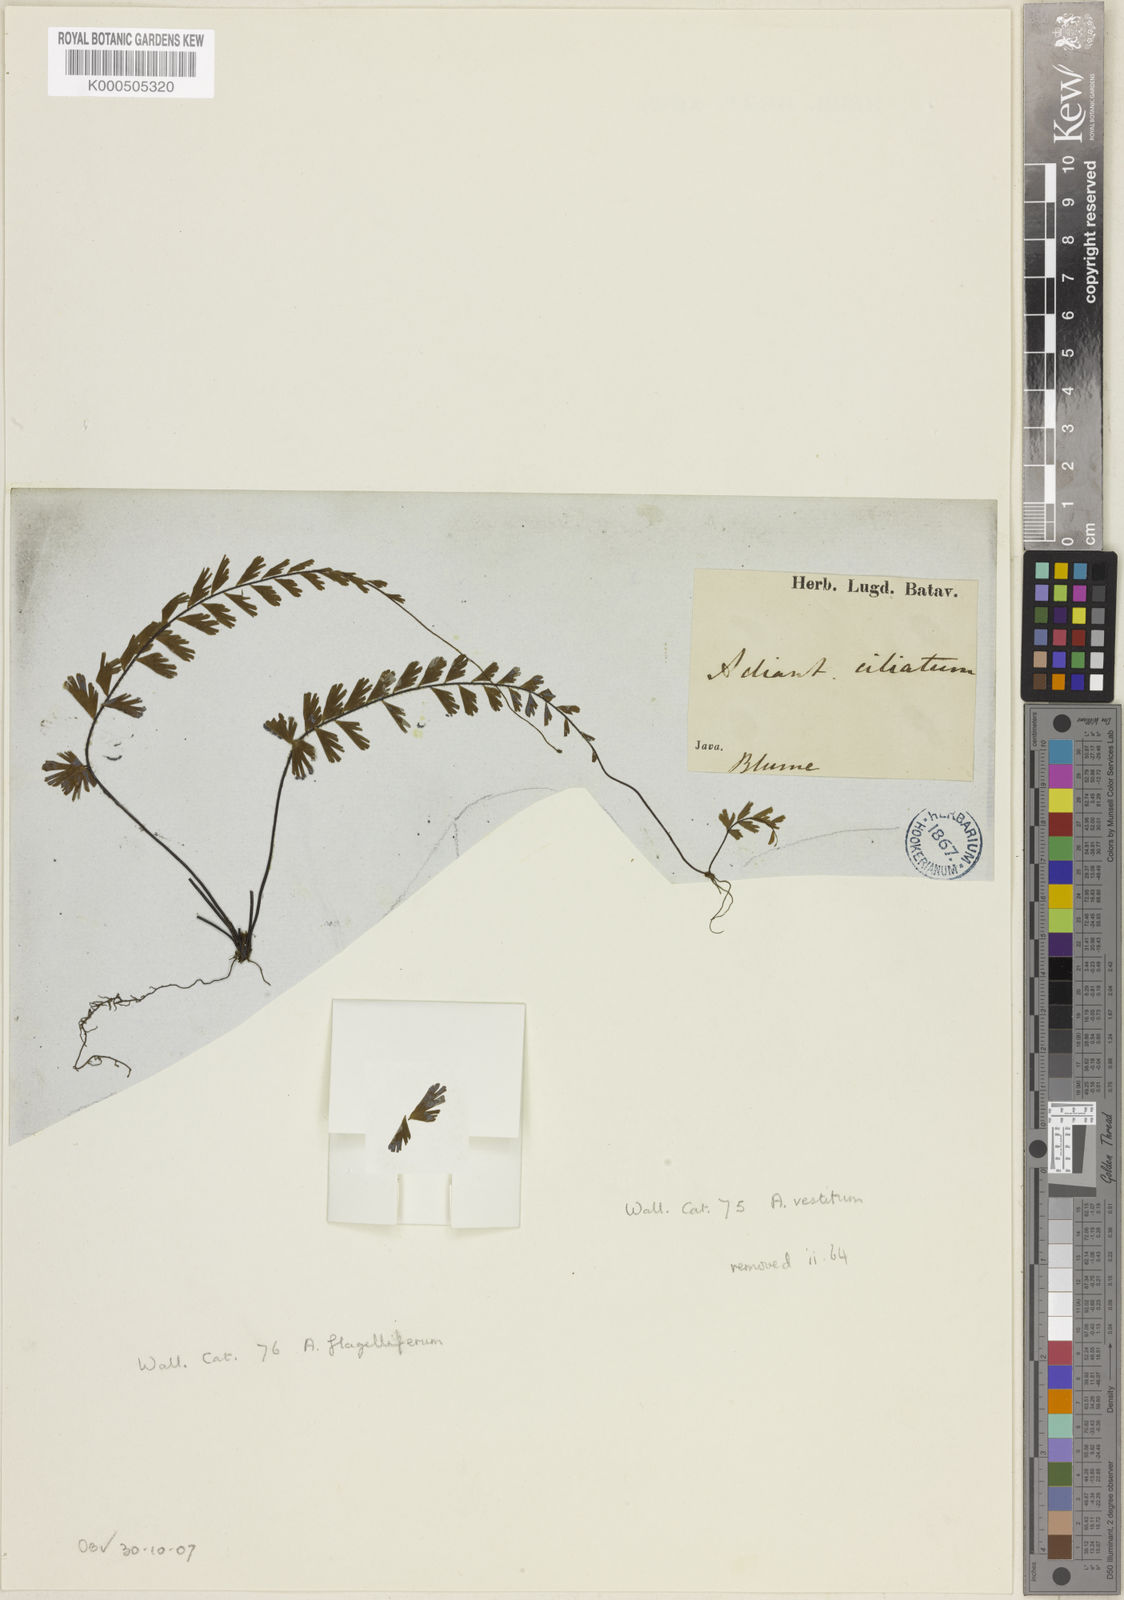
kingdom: Plantae
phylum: Tracheophyta
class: Polypodiopsida
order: Polypodiales
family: Pteridaceae
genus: Adiantum
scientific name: Adiantum ciliatum
